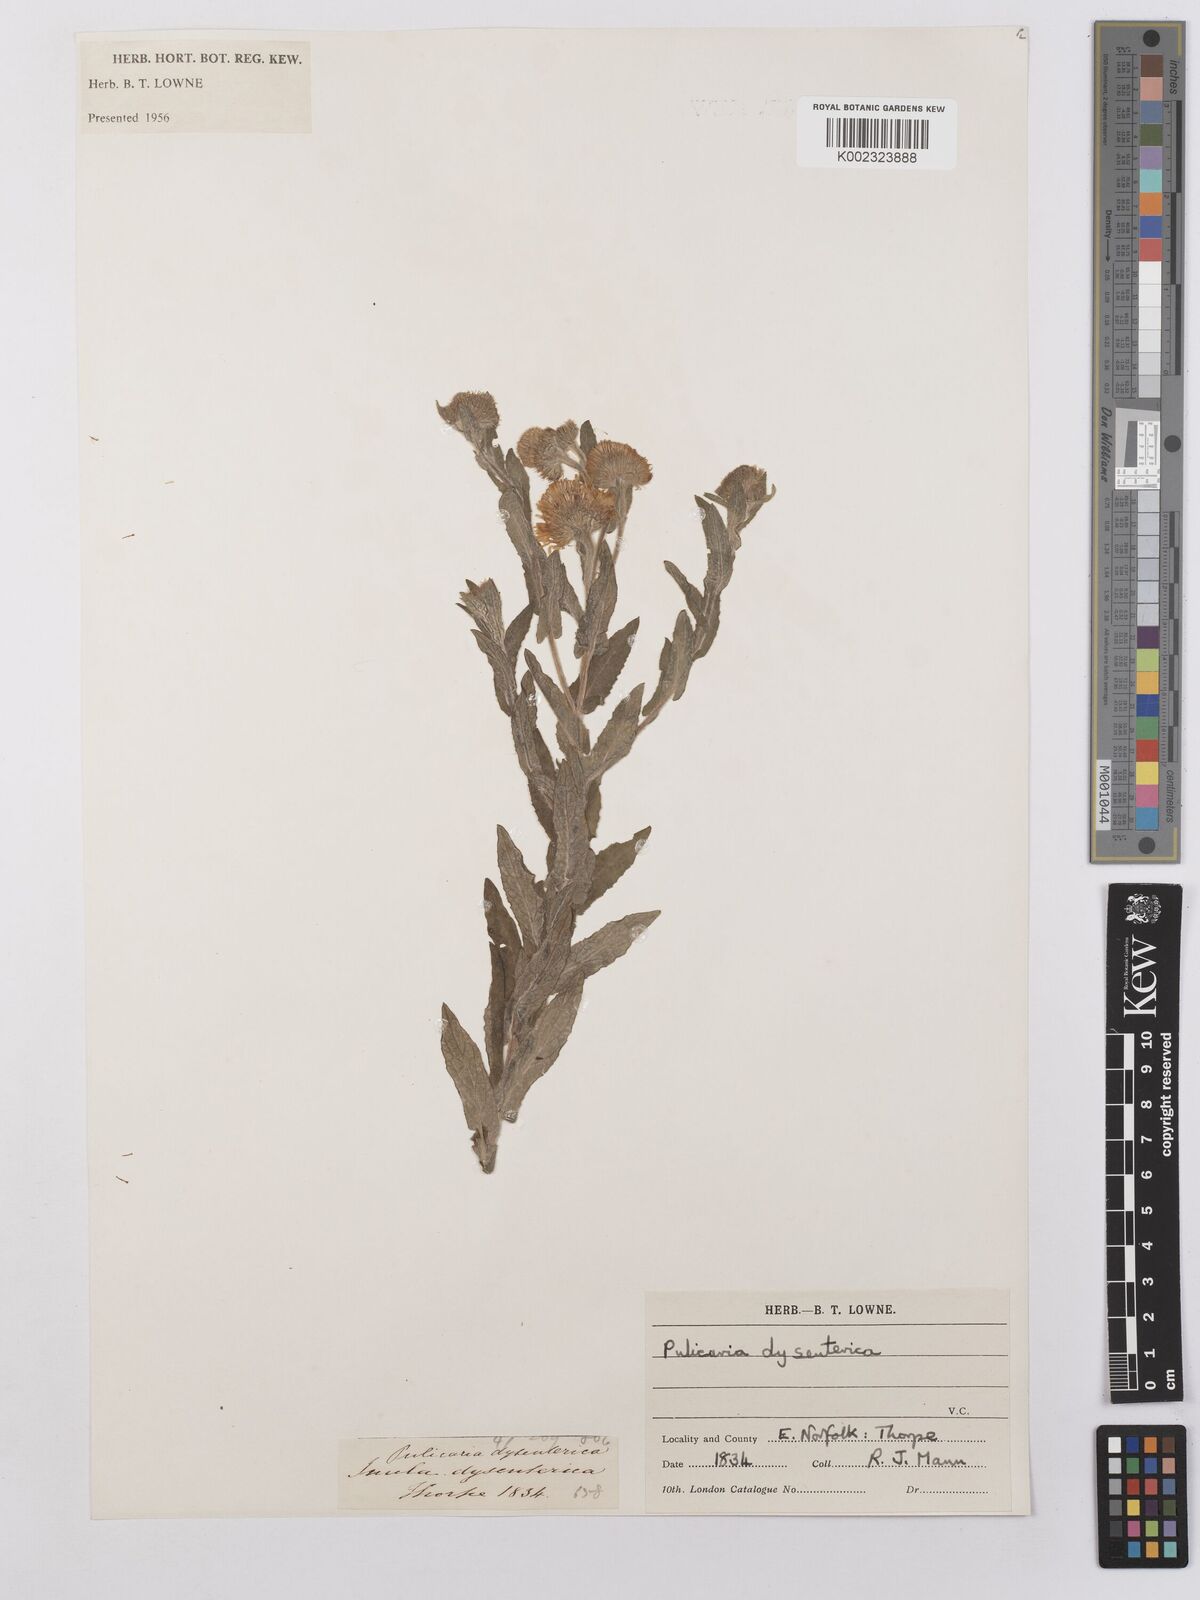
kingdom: Plantae
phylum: Tracheophyta
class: Magnoliopsida
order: Asterales
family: Asteraceae
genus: Pulicaria
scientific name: Pulicaria dysenterica
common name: Common fleabane
